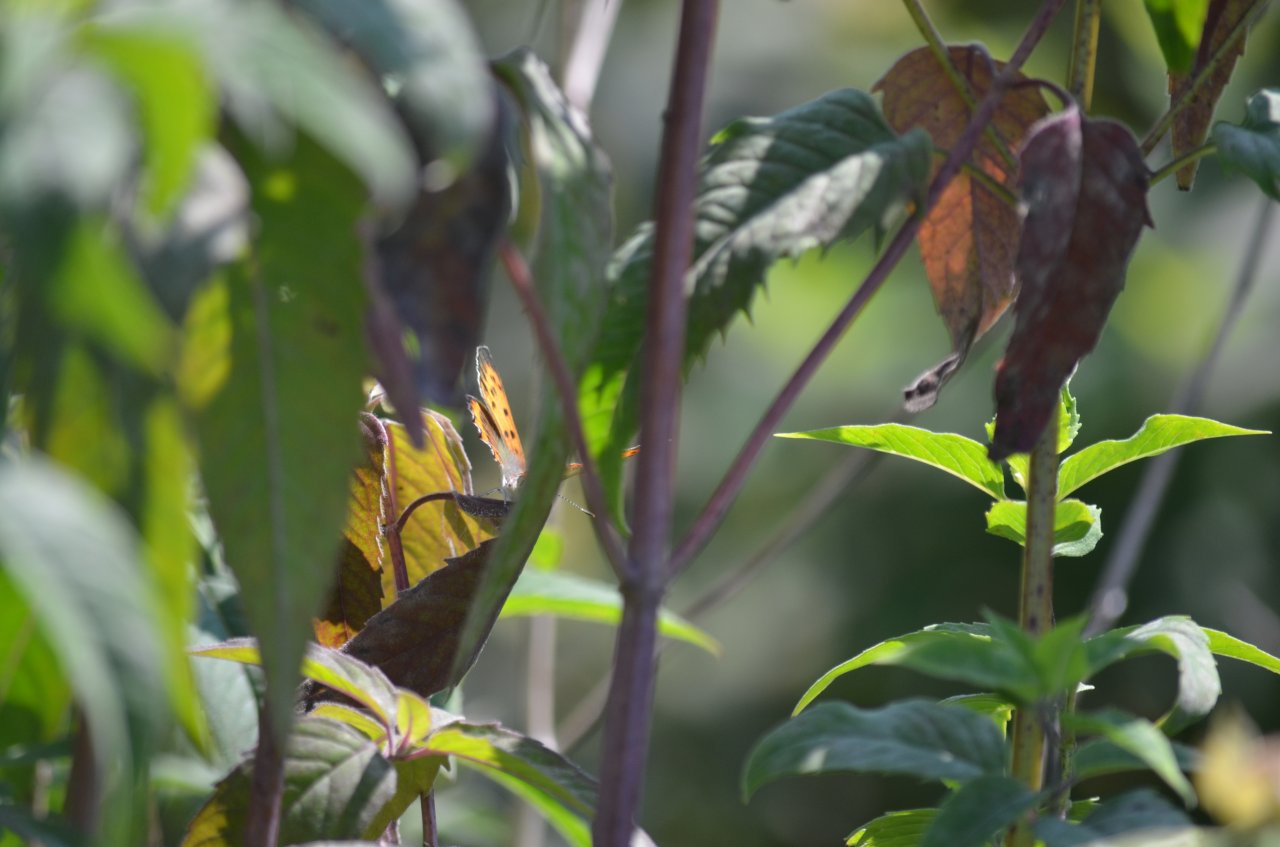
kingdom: Animalia
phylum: Arthropoda
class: Insecta
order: Lepidoptera
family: Sesiidae
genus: Sesia
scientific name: Sesia Lycaena hyllus
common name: Bronze Copper
